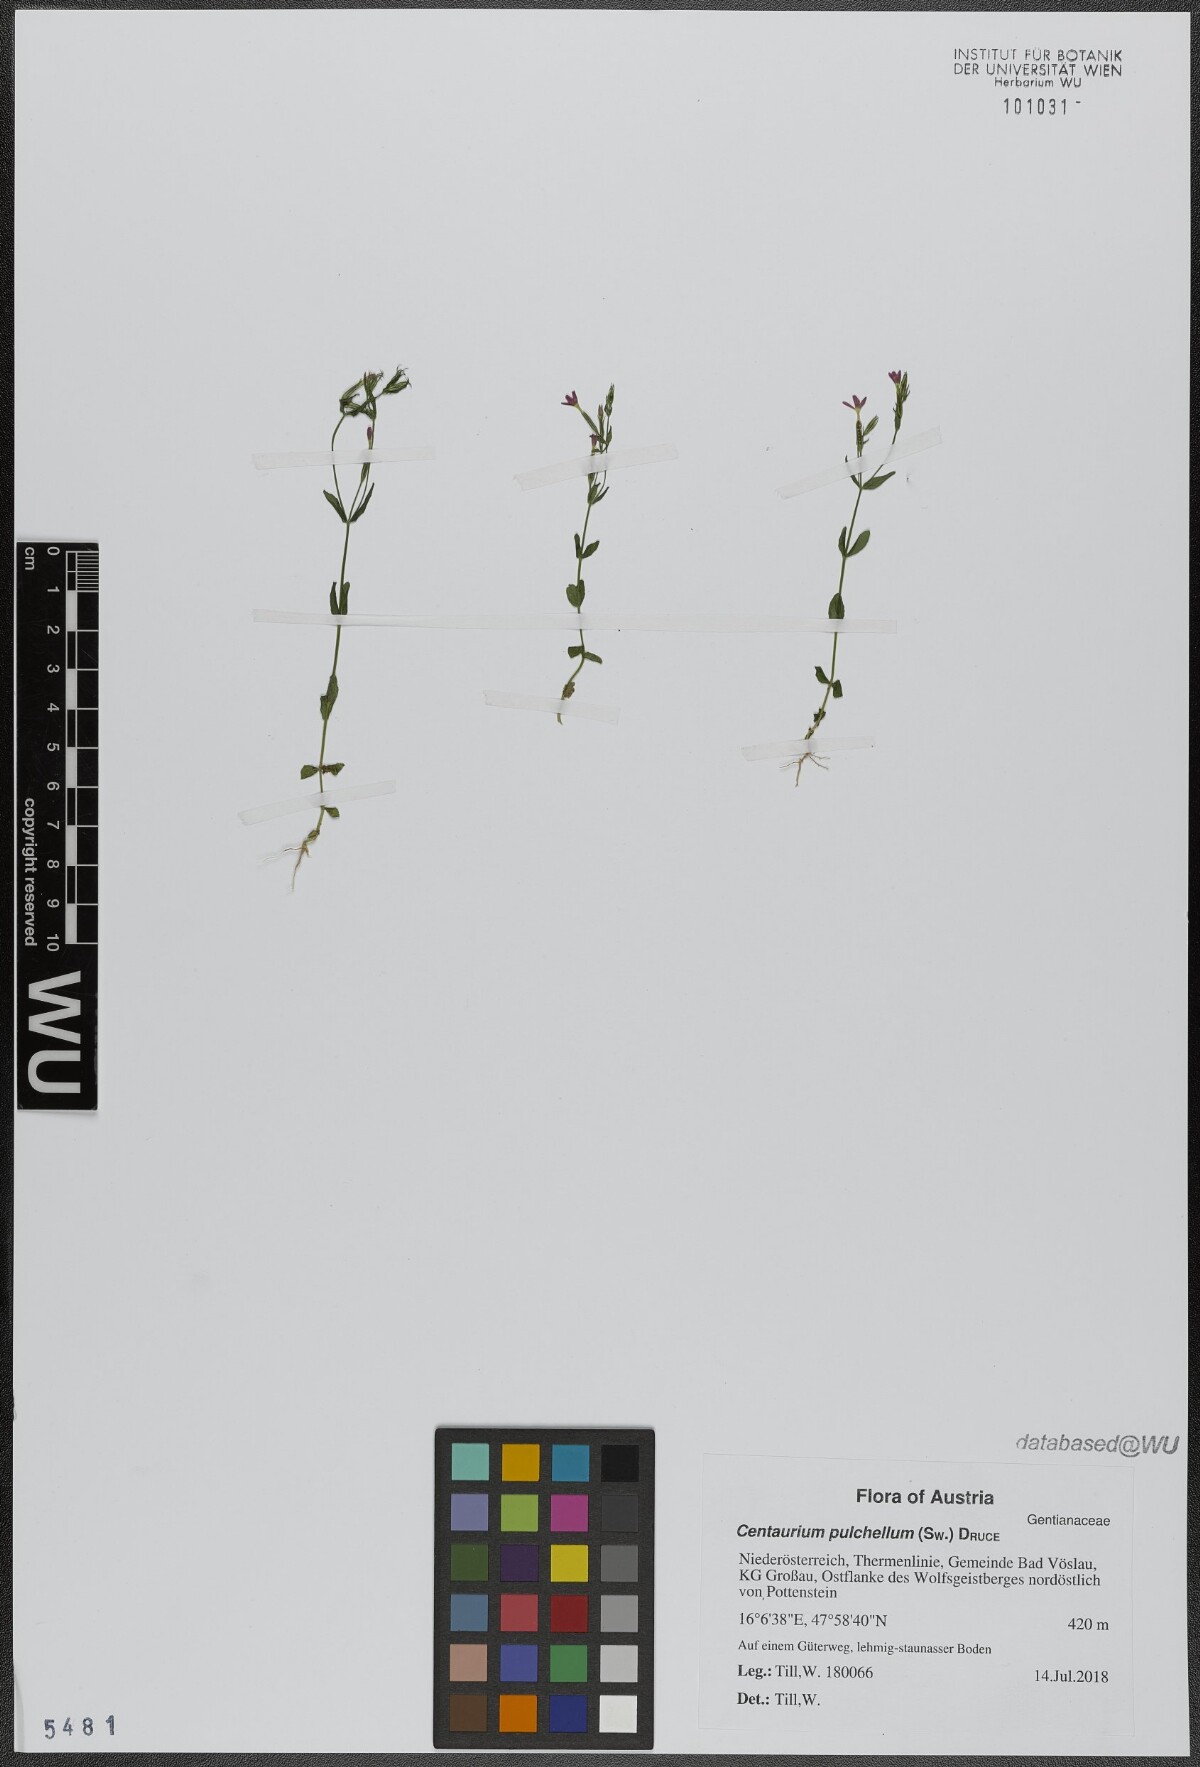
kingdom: Plantae
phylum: Tracheophyta
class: Magnoliopsida
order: Gentianales
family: Gentianaceae
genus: Centaurium
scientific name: Centaurium pulchellum
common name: Lesser centaury
